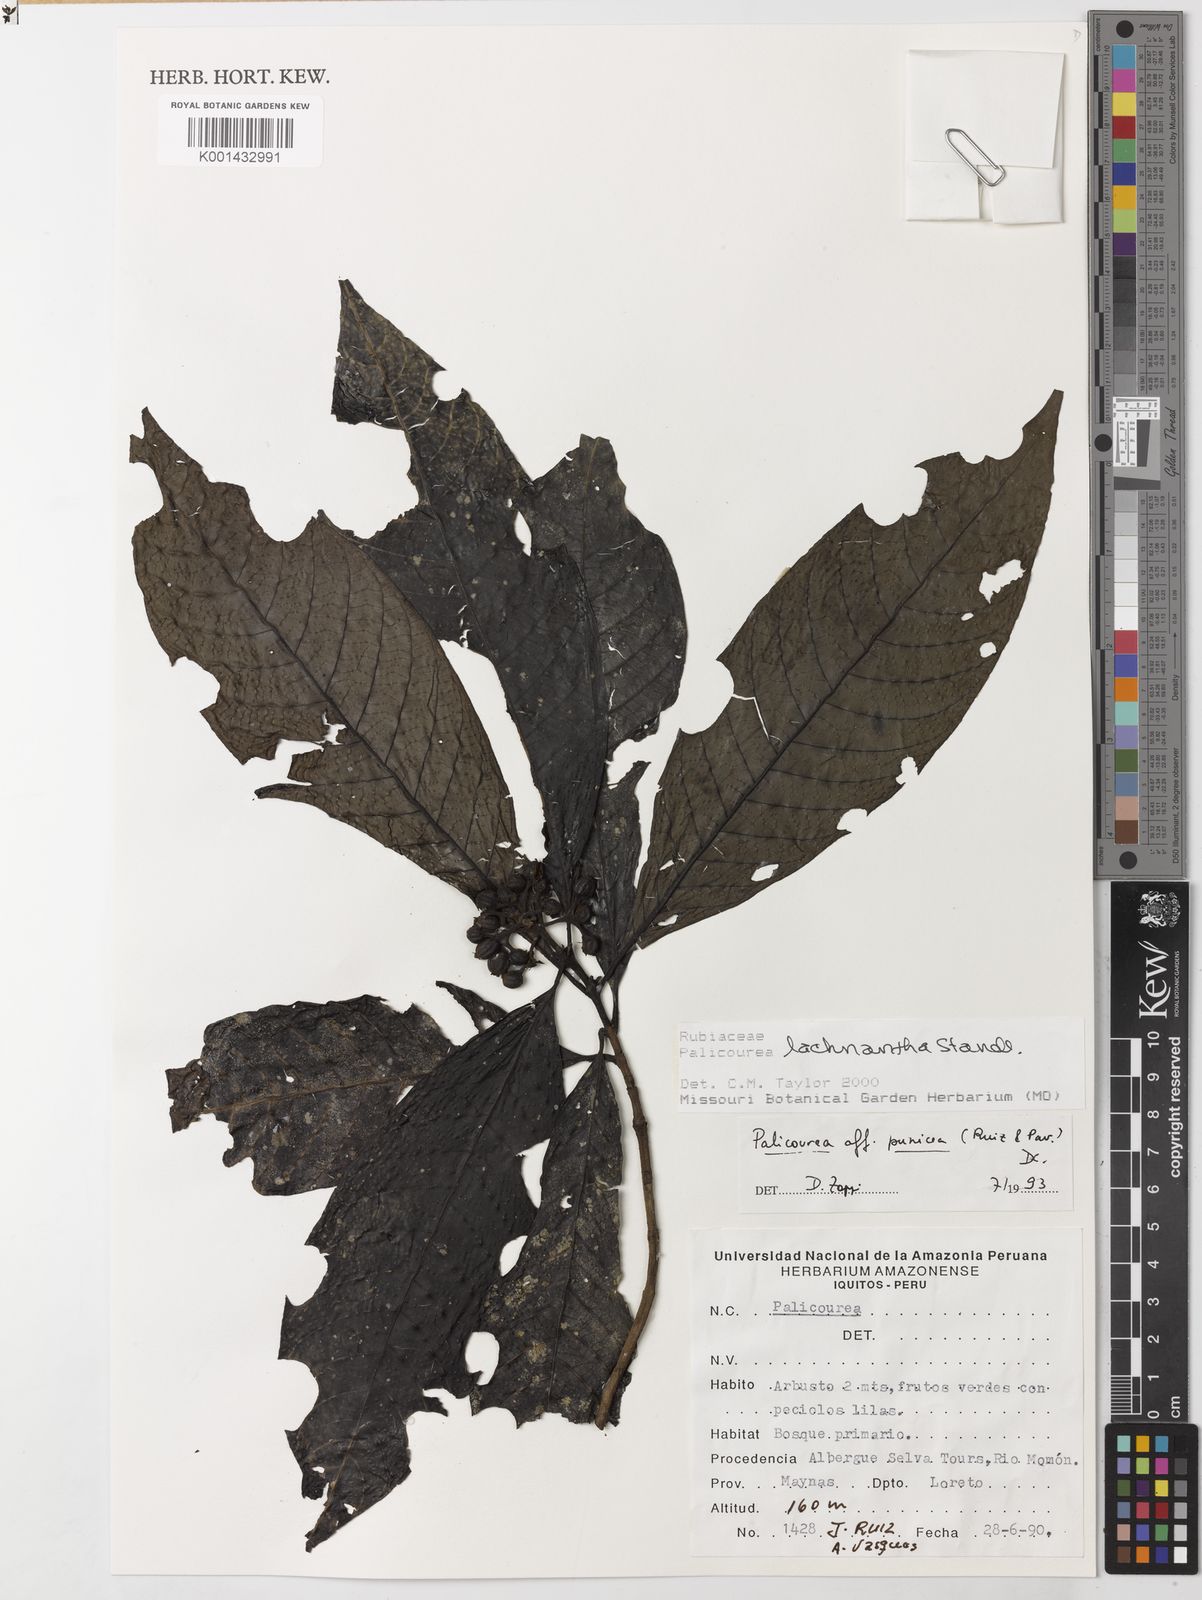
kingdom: Plantae
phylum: Tracheophyta
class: Magnoliopsida
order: Gentianales
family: Rubiaceae
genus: Palicourea
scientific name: Palicourea lachnantha
